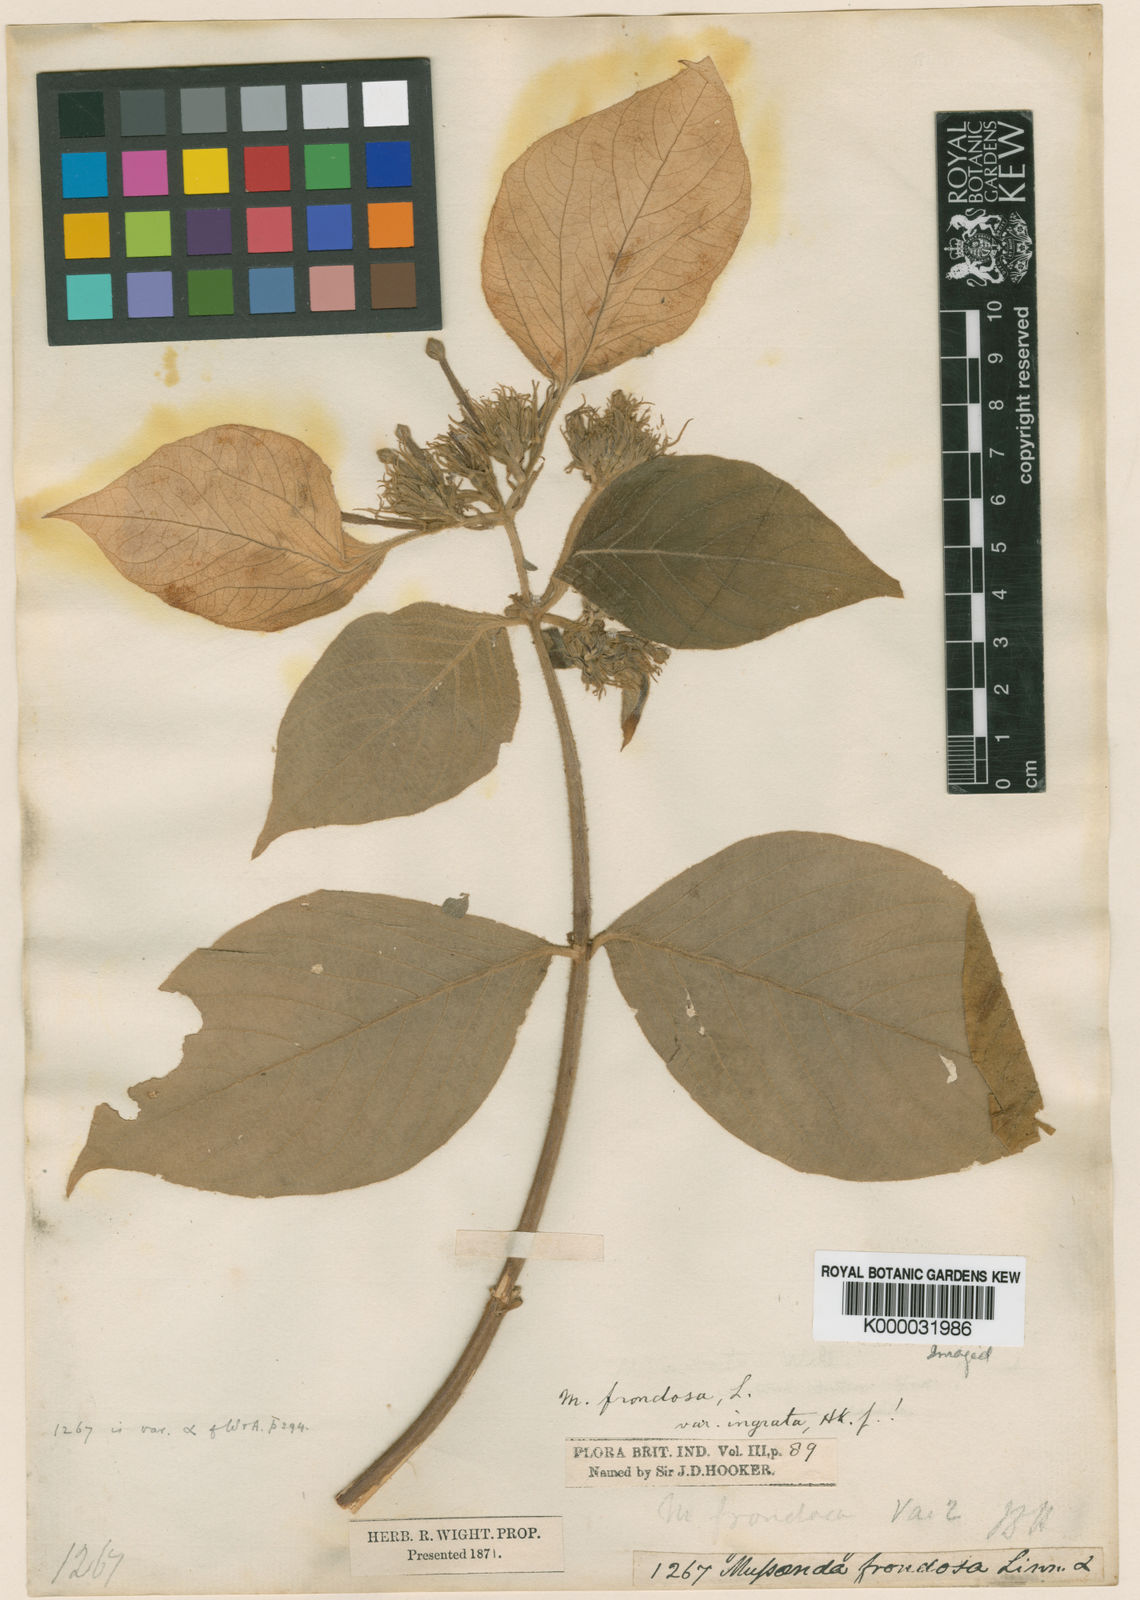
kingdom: Plantae
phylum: Tracheophyta
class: Magnoliopsida
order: Gentianales
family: Rubiaceae
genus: Mussaenda
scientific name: Mussaenda frondosa
